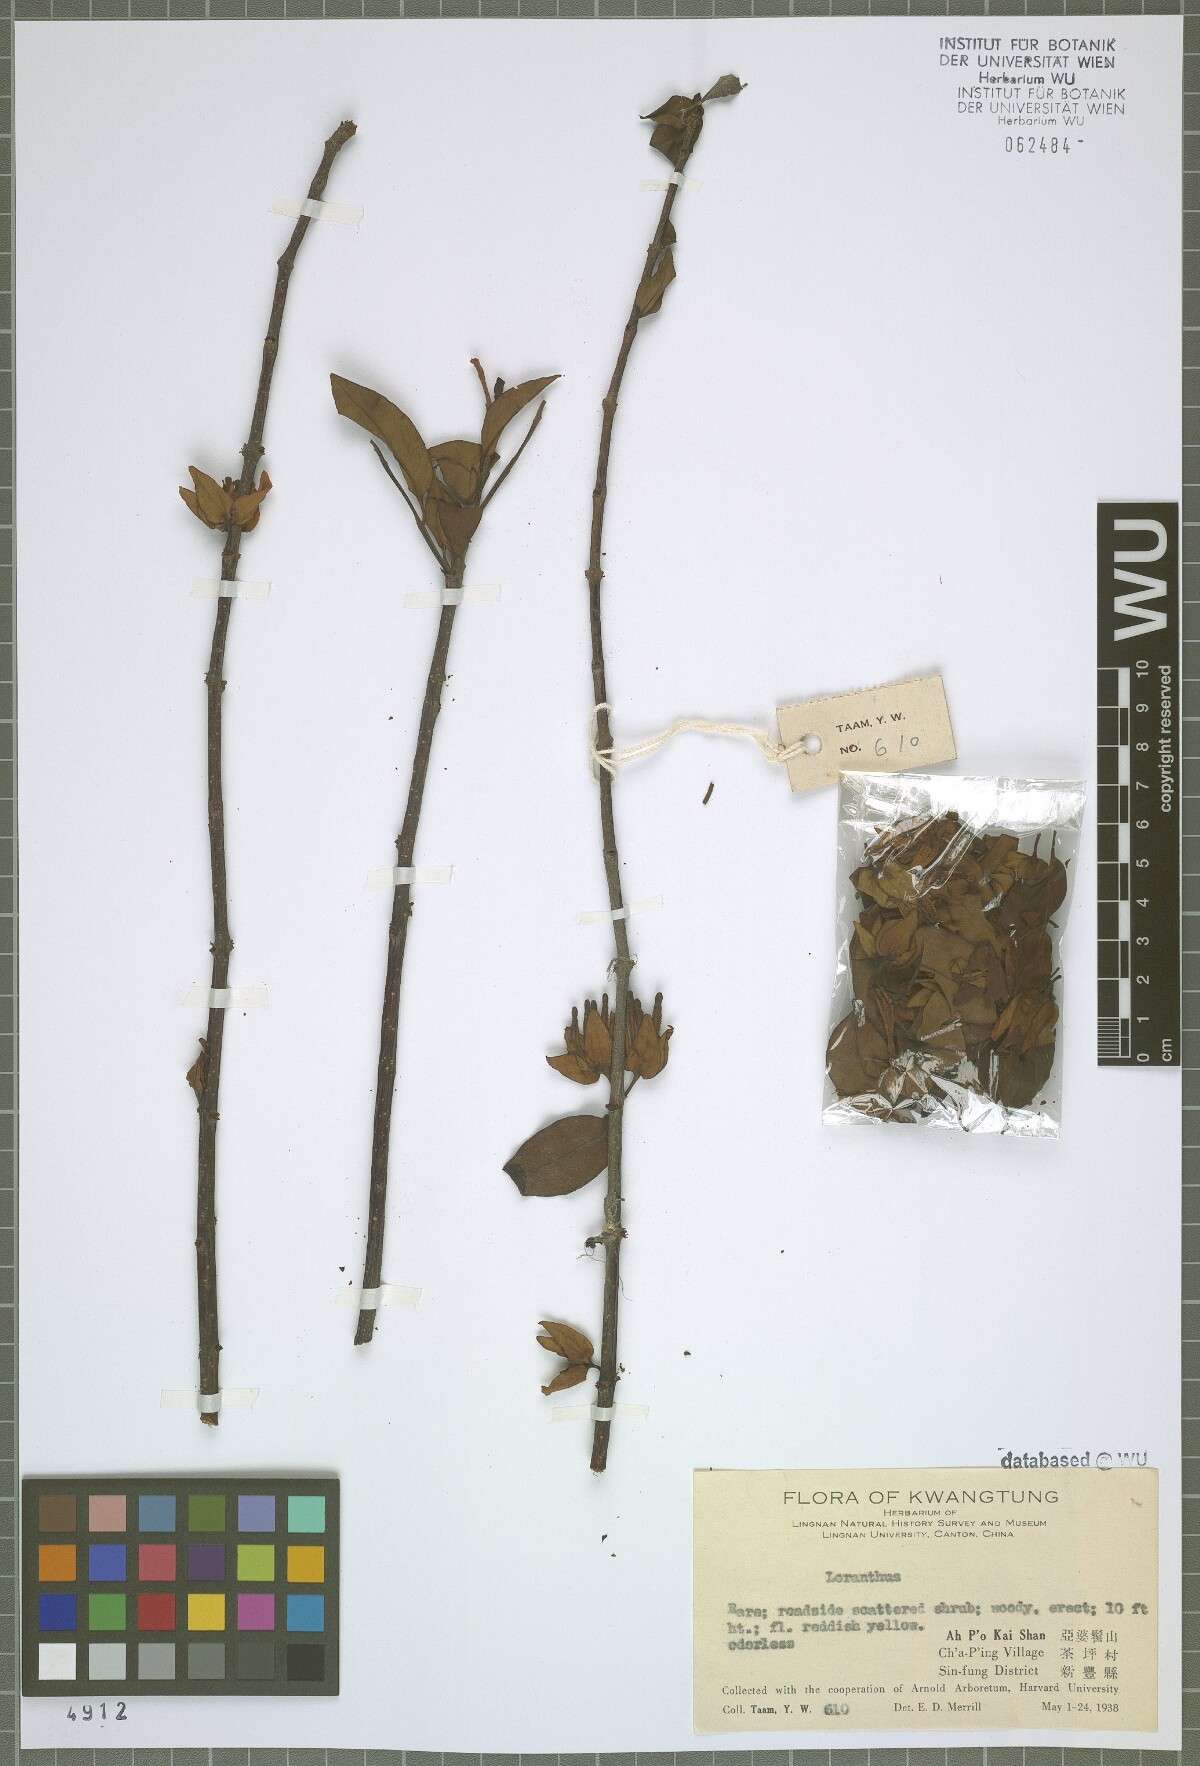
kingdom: Plantae
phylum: Tracheophyta
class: Magnoliopsida
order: Santalales
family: Loranthaceae
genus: Loranthus
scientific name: Loranthus
